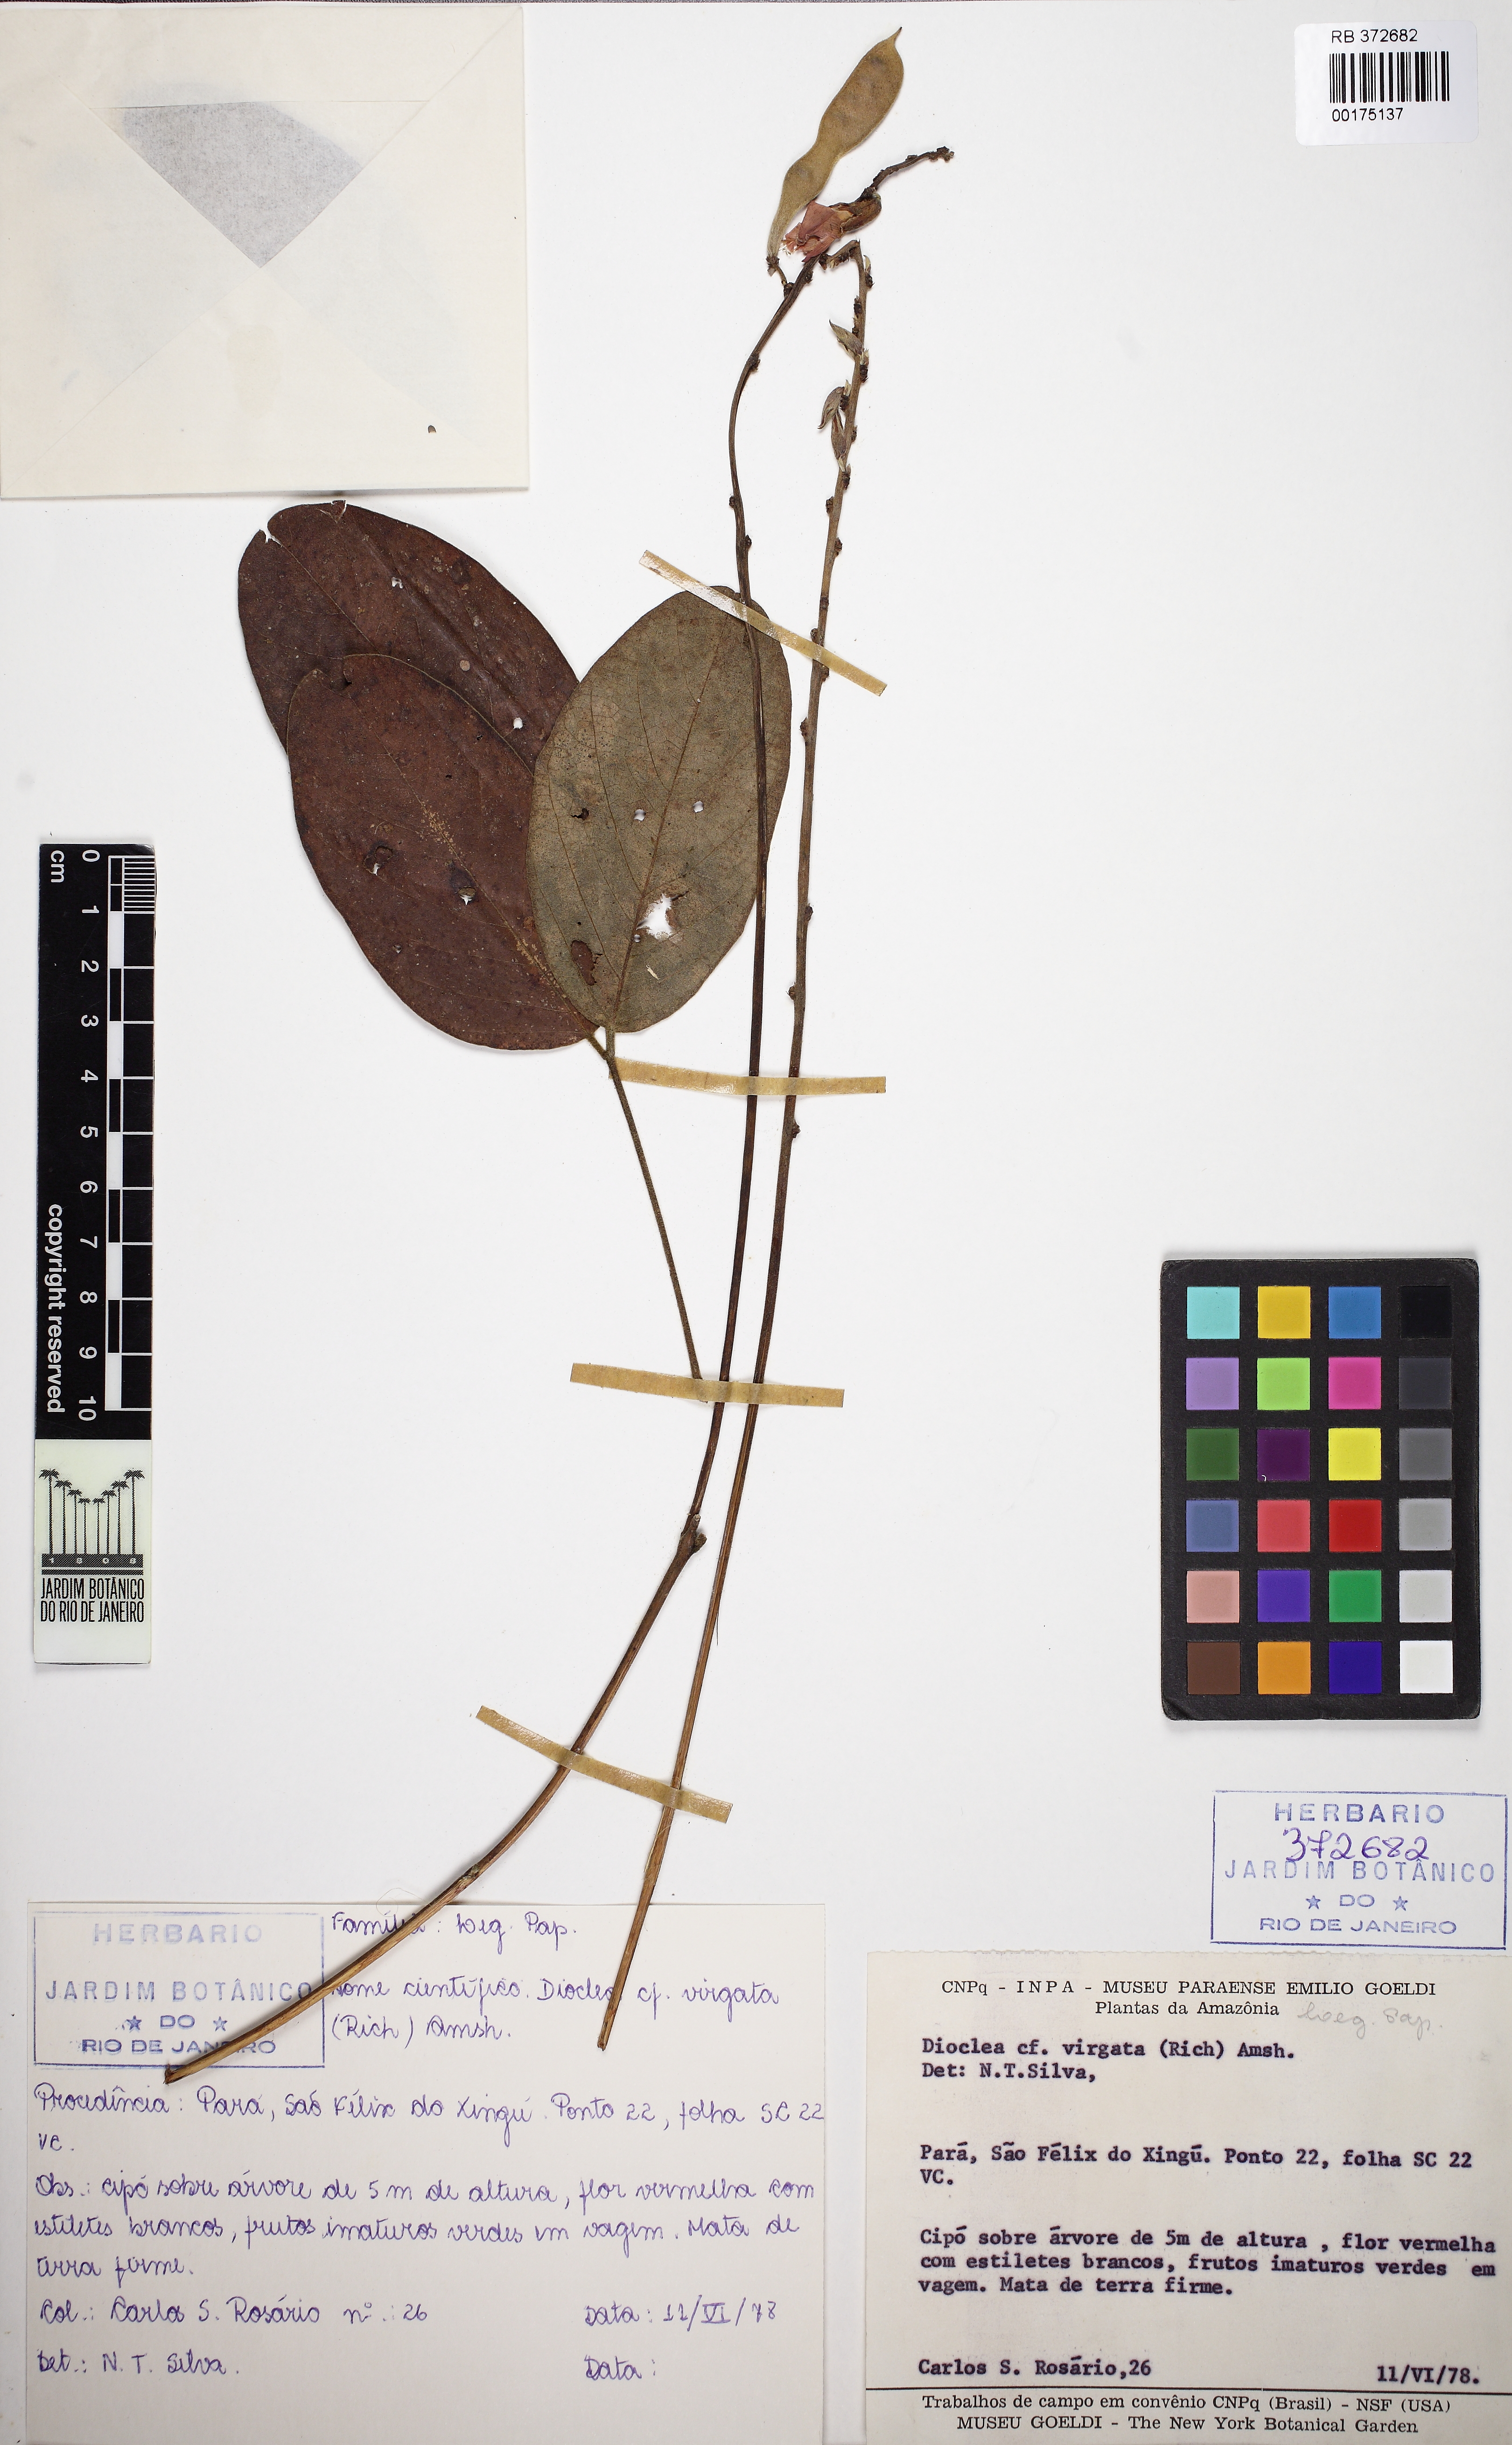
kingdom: Plantae
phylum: Tracheophyta
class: Magnoliopsida
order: Fabales
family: Fabaceae
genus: Dioclea
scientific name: Dioclea virgata
